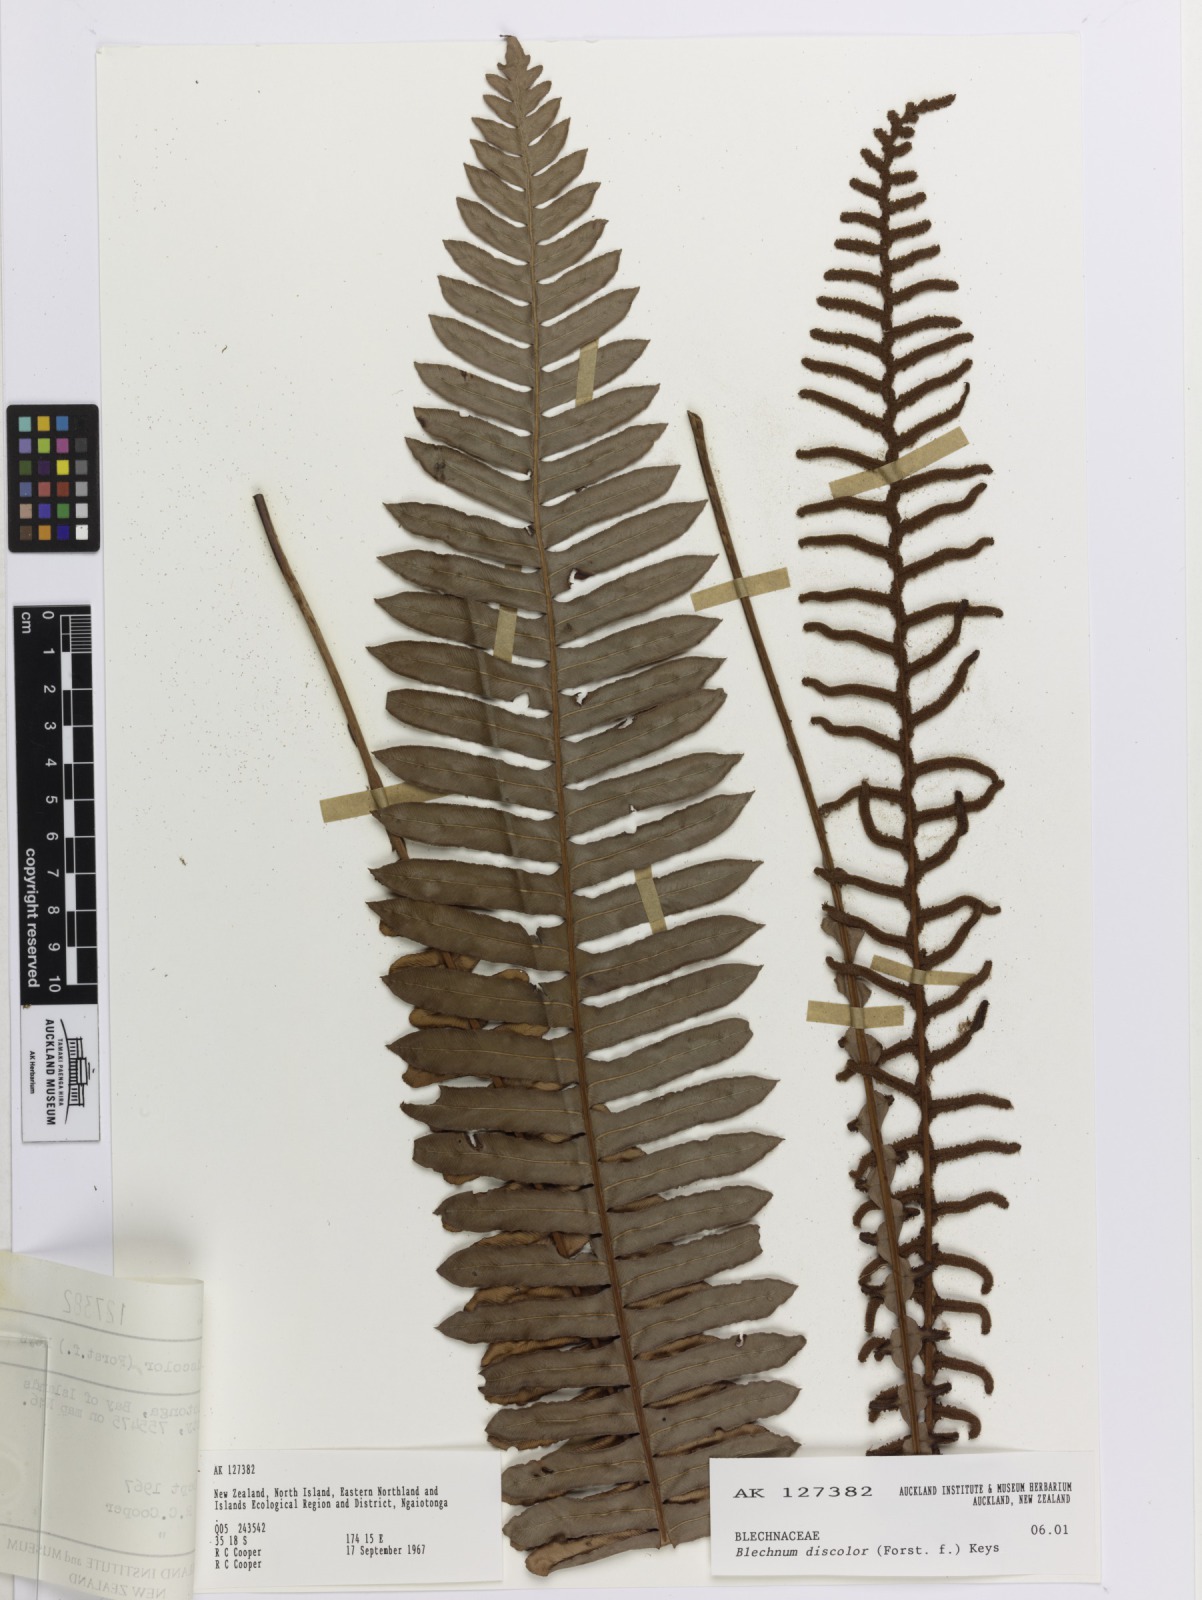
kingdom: Plantae
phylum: Tracheophyta
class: Polypodiopsida
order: Polypodiales
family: Blechnaceae
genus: Lomaria
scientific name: Lomaria discolor
